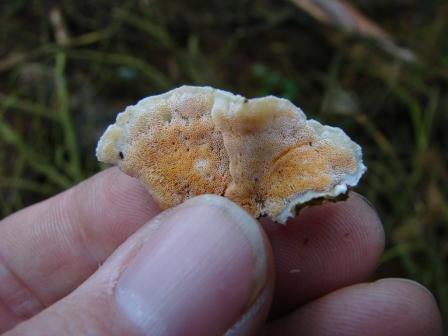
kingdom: Fungi
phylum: Basidiomycota
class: Agaricomycetes
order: Polyporales
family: Polyporaceae
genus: Trametes
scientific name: Trametes hirsuta
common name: håret læderporesvamp
